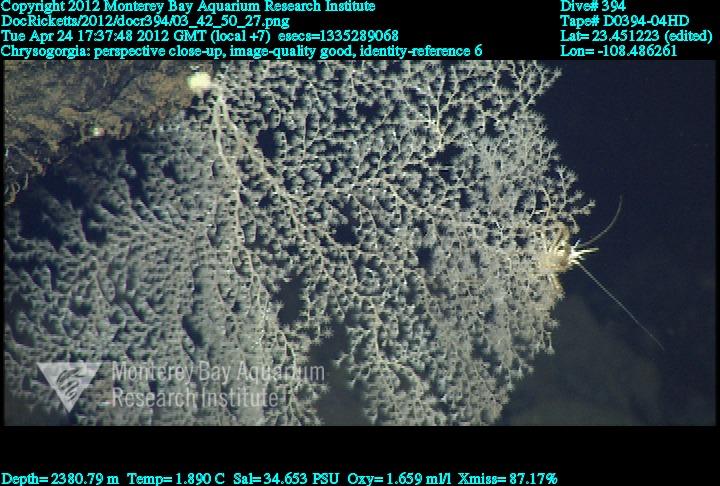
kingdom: Animalia
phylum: Cnidaria
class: Anthozoa
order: Scleralcyonacea
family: Chrysogorgiidae
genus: Chrysogorgia
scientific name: Chrysogorgia
